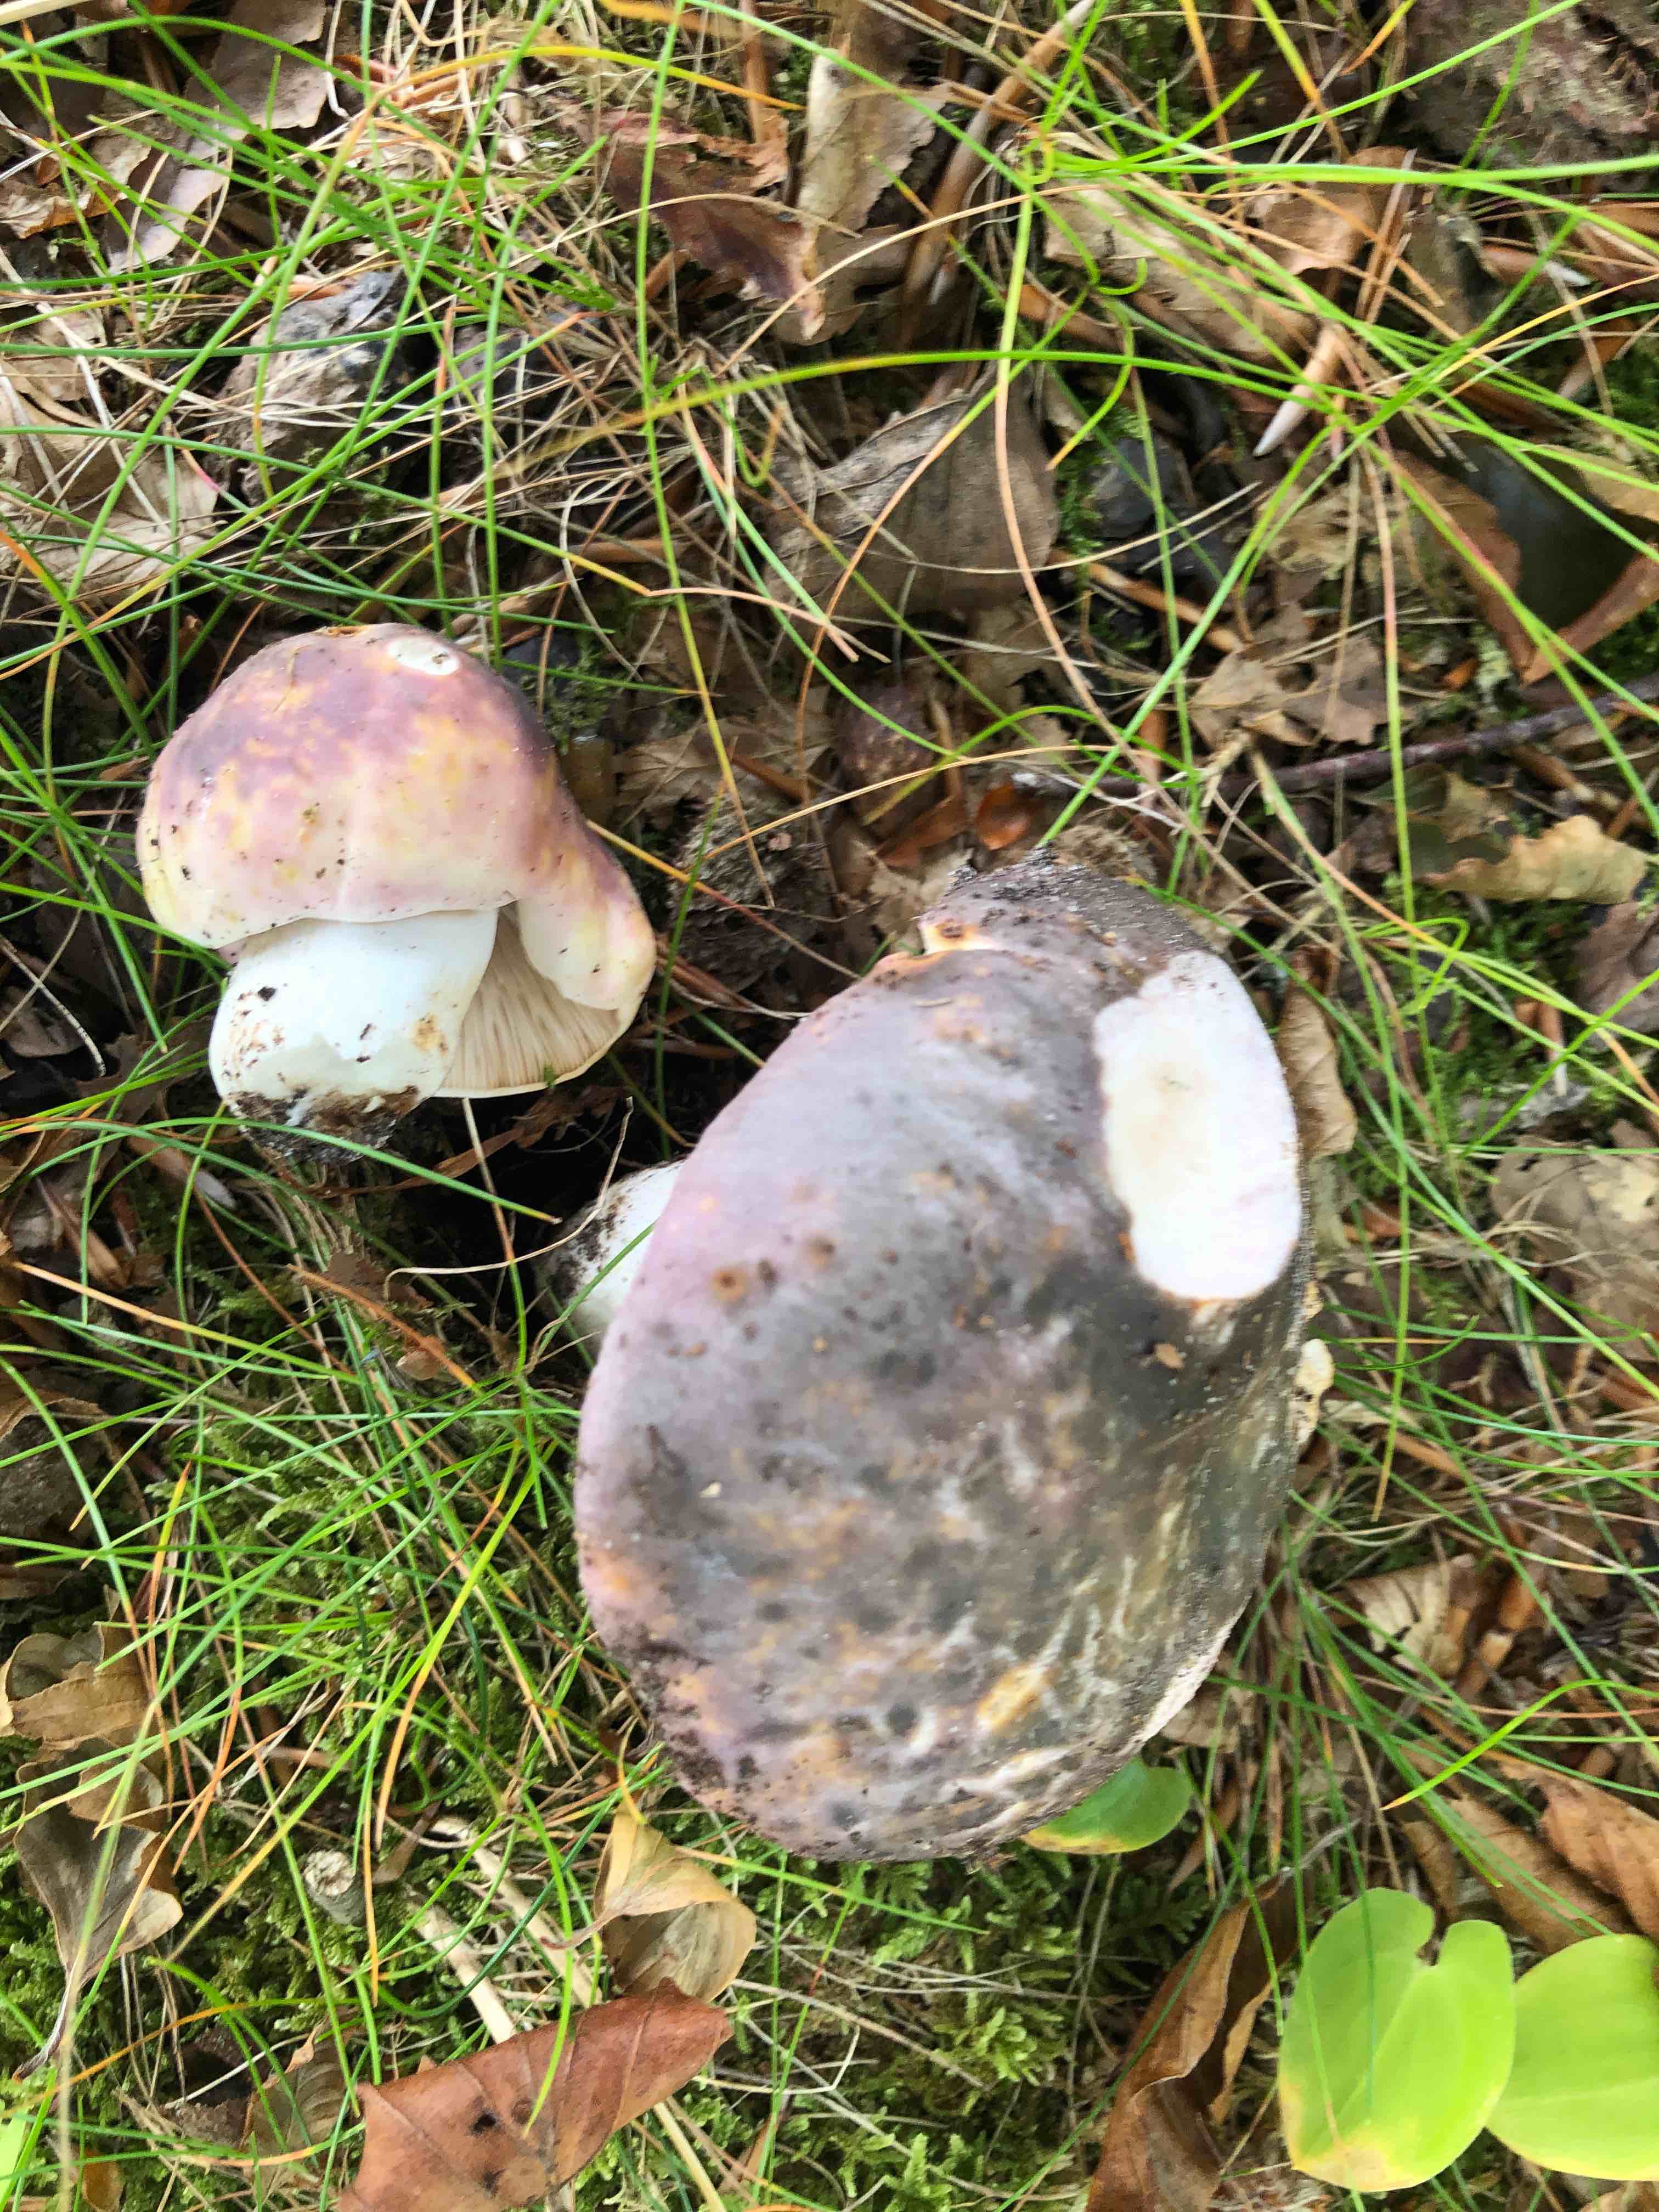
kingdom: Fungi
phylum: Basidiomycota
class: Agaricomycetes
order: Russulales
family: Russulaceae
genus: Russula
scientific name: Russula cyanoxantha
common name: broget skørhat
